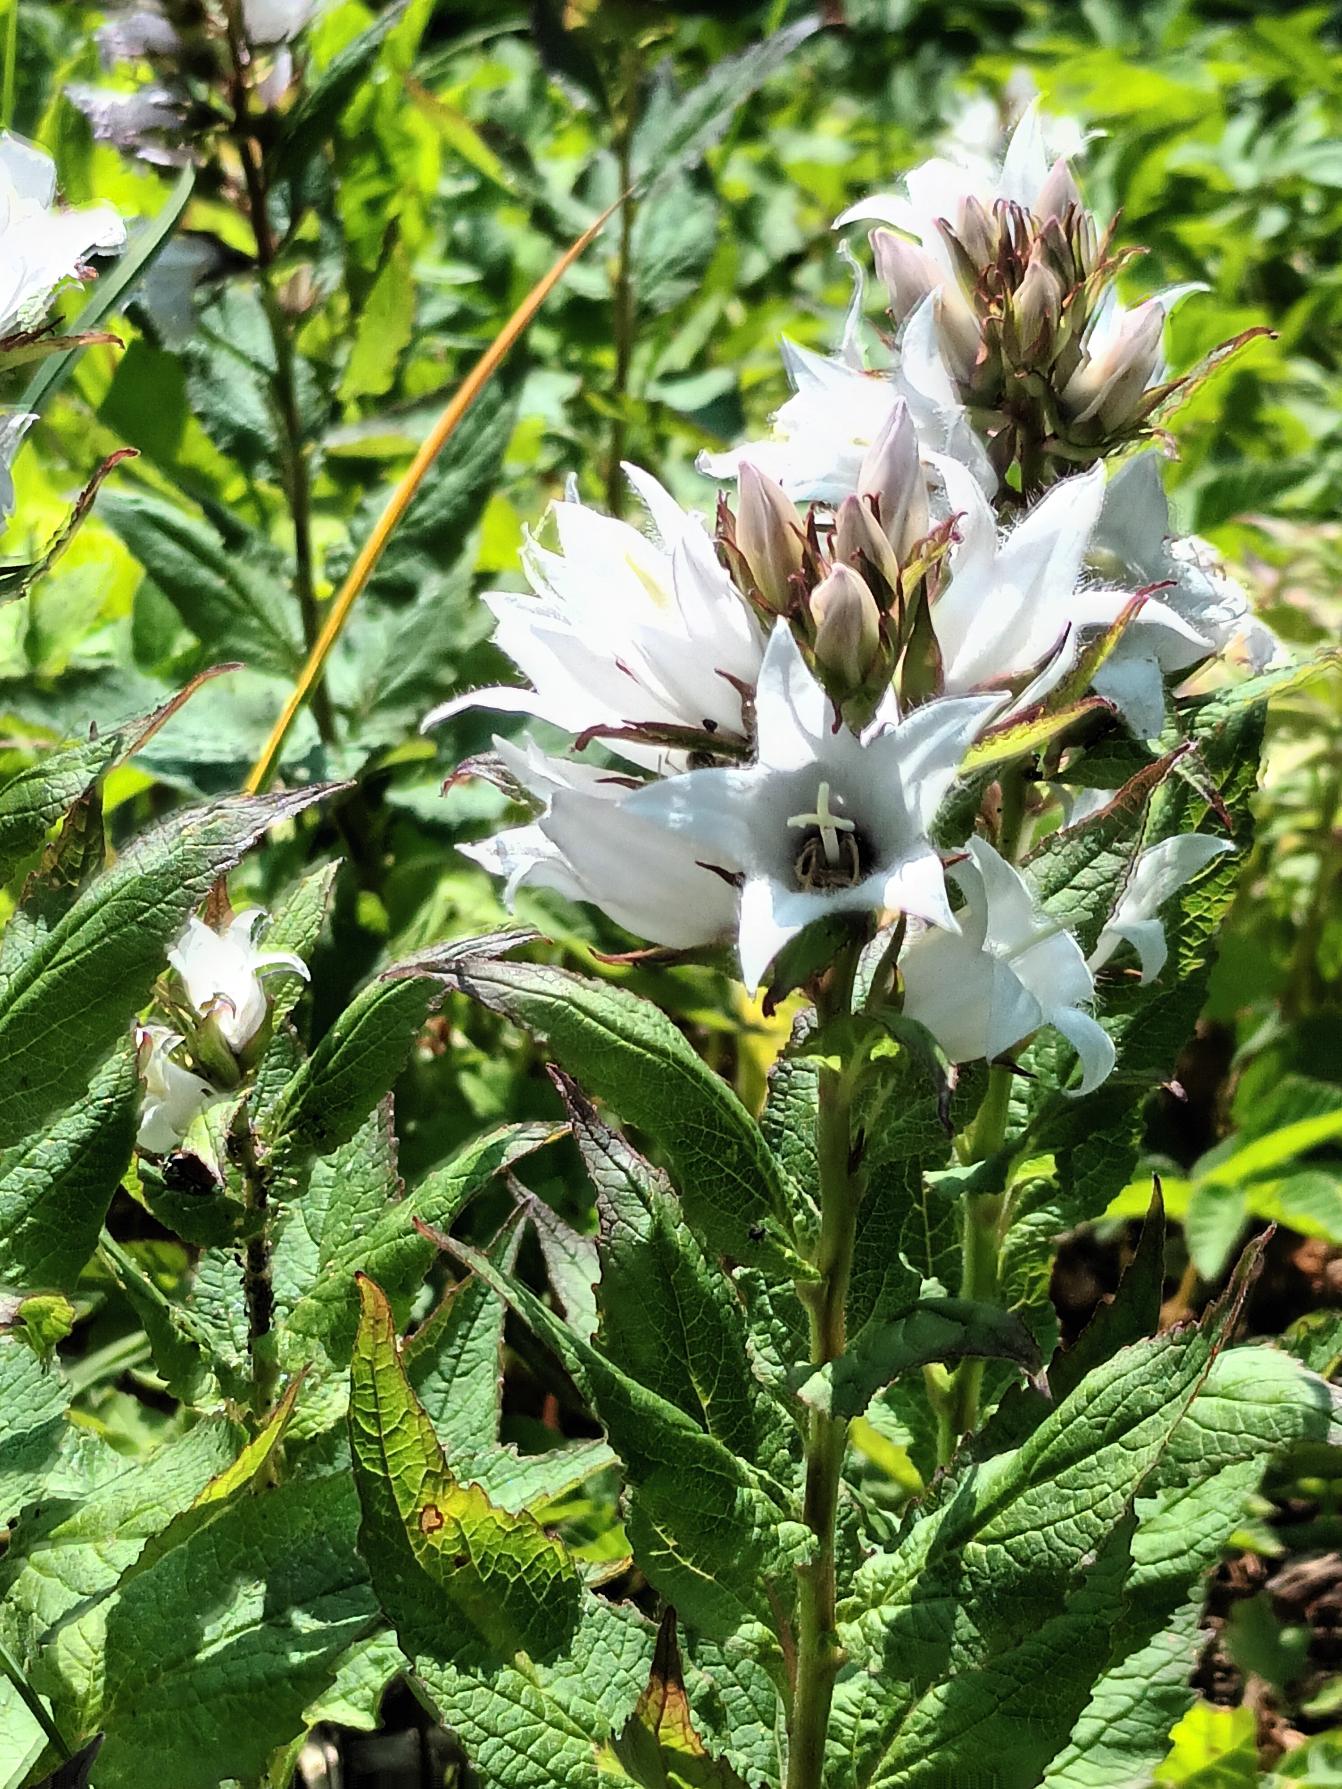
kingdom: Plantae
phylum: Tracheophyta
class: Magnoliopsida
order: Asterales
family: Campanulaceae
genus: Campanula
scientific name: Campanula lactiflora
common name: Mælke-klokke
